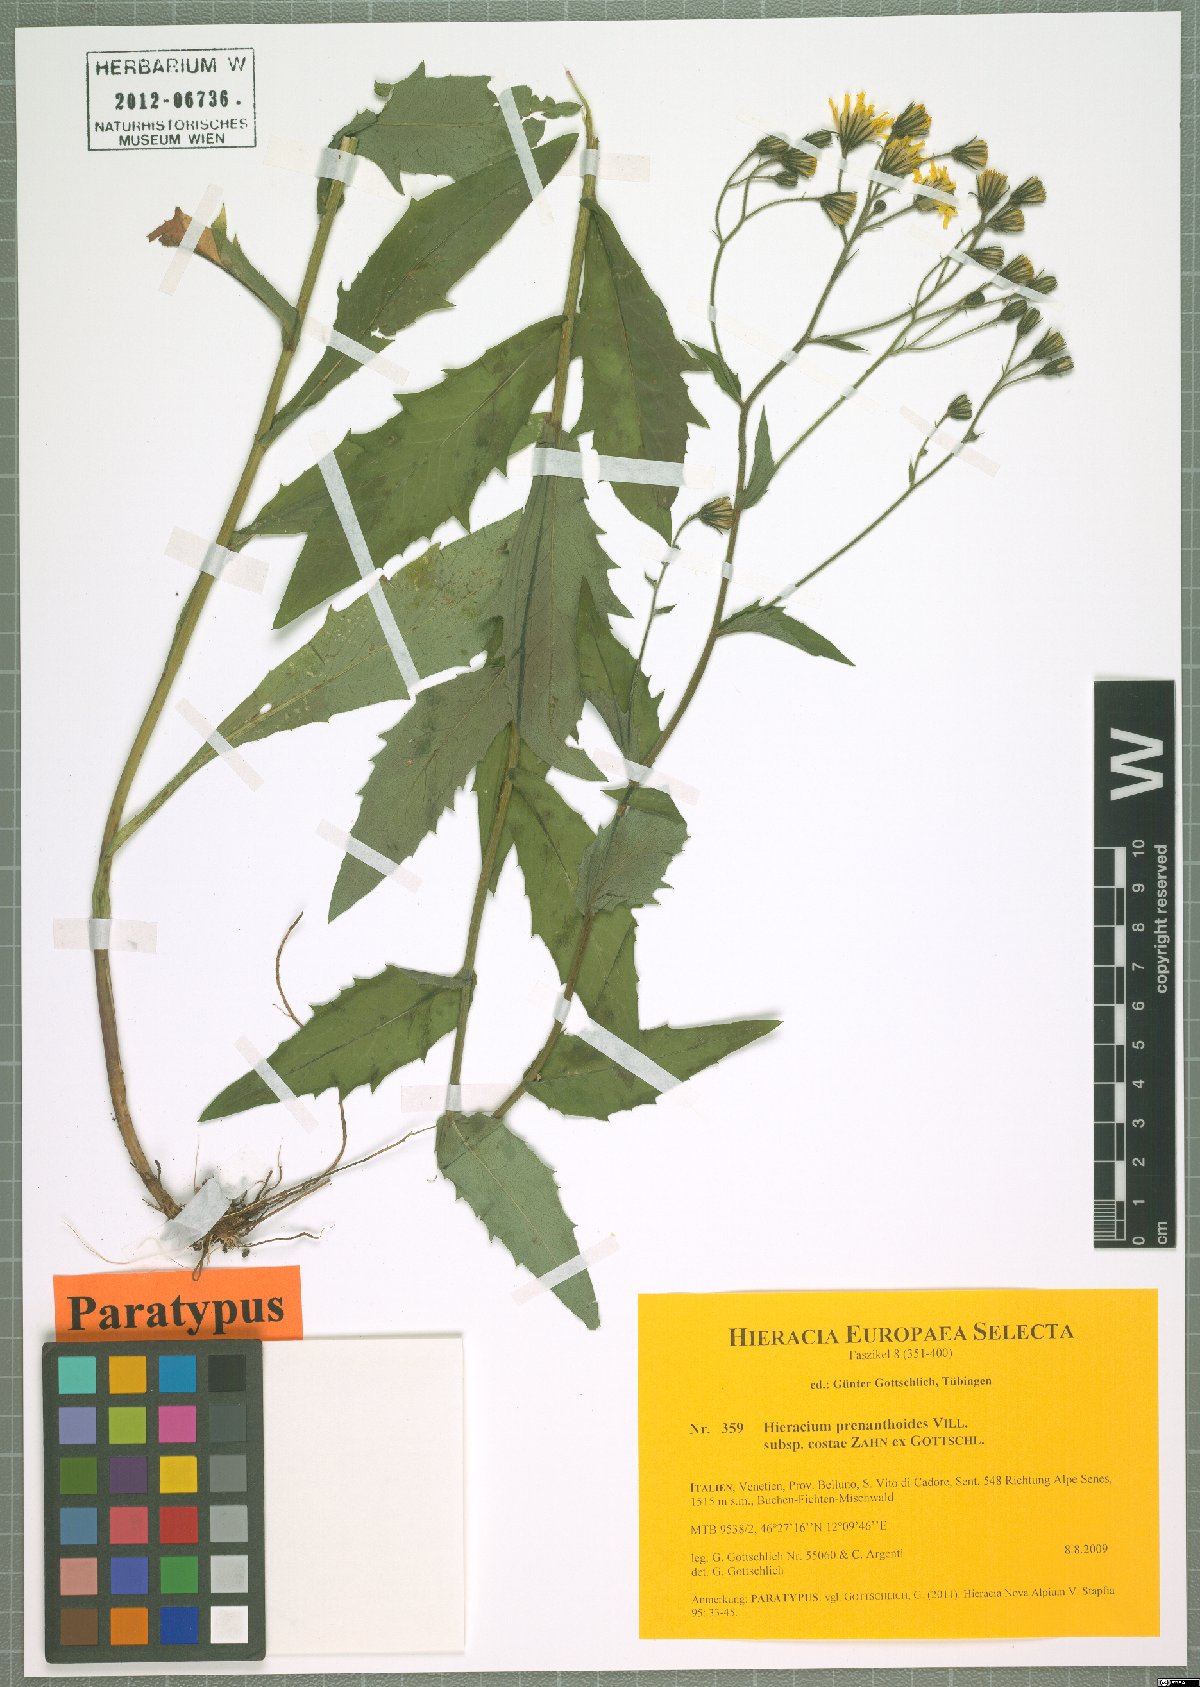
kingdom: Plantae
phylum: Tracheophyta
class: Magnoliopsida
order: Asterales
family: Asteraceae
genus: Hieracium
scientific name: Hieracium prenanthoides
